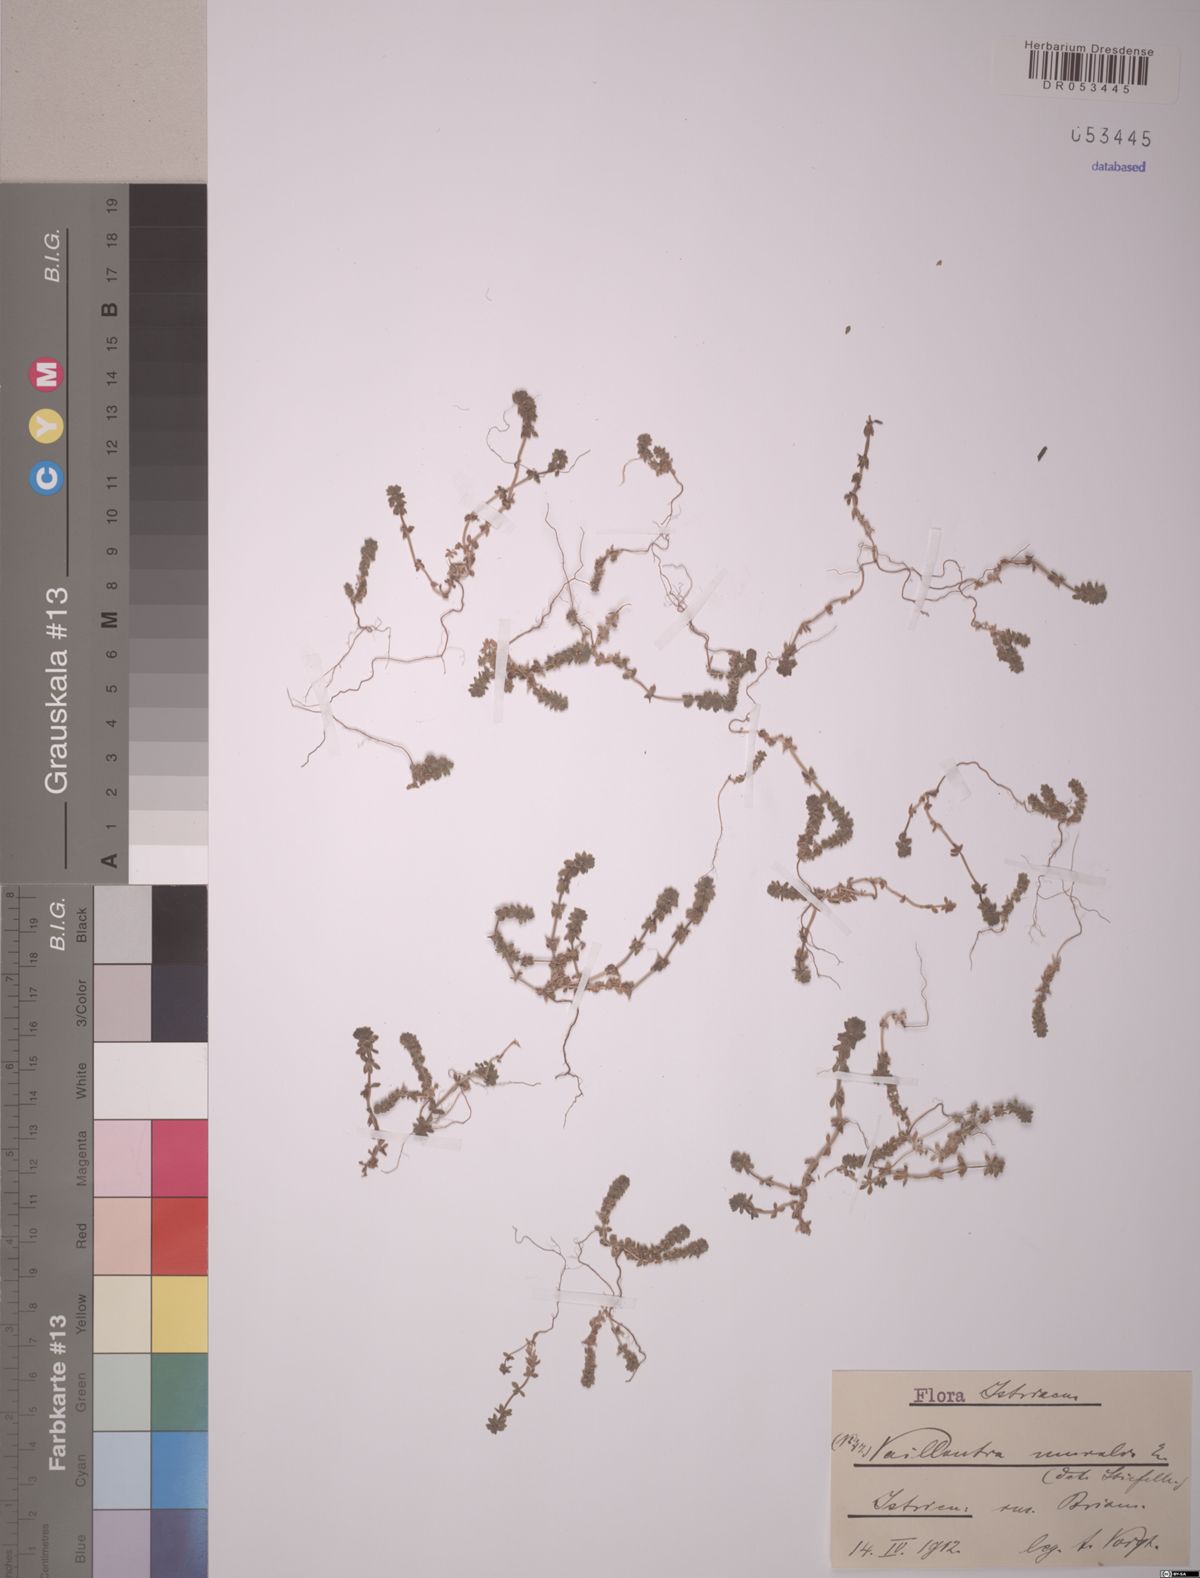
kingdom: Plantae
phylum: Tracheophyta
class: Magnoliopsida
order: Gentianales
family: Rubiaceae
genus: Valantia
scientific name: Valantia muralis
